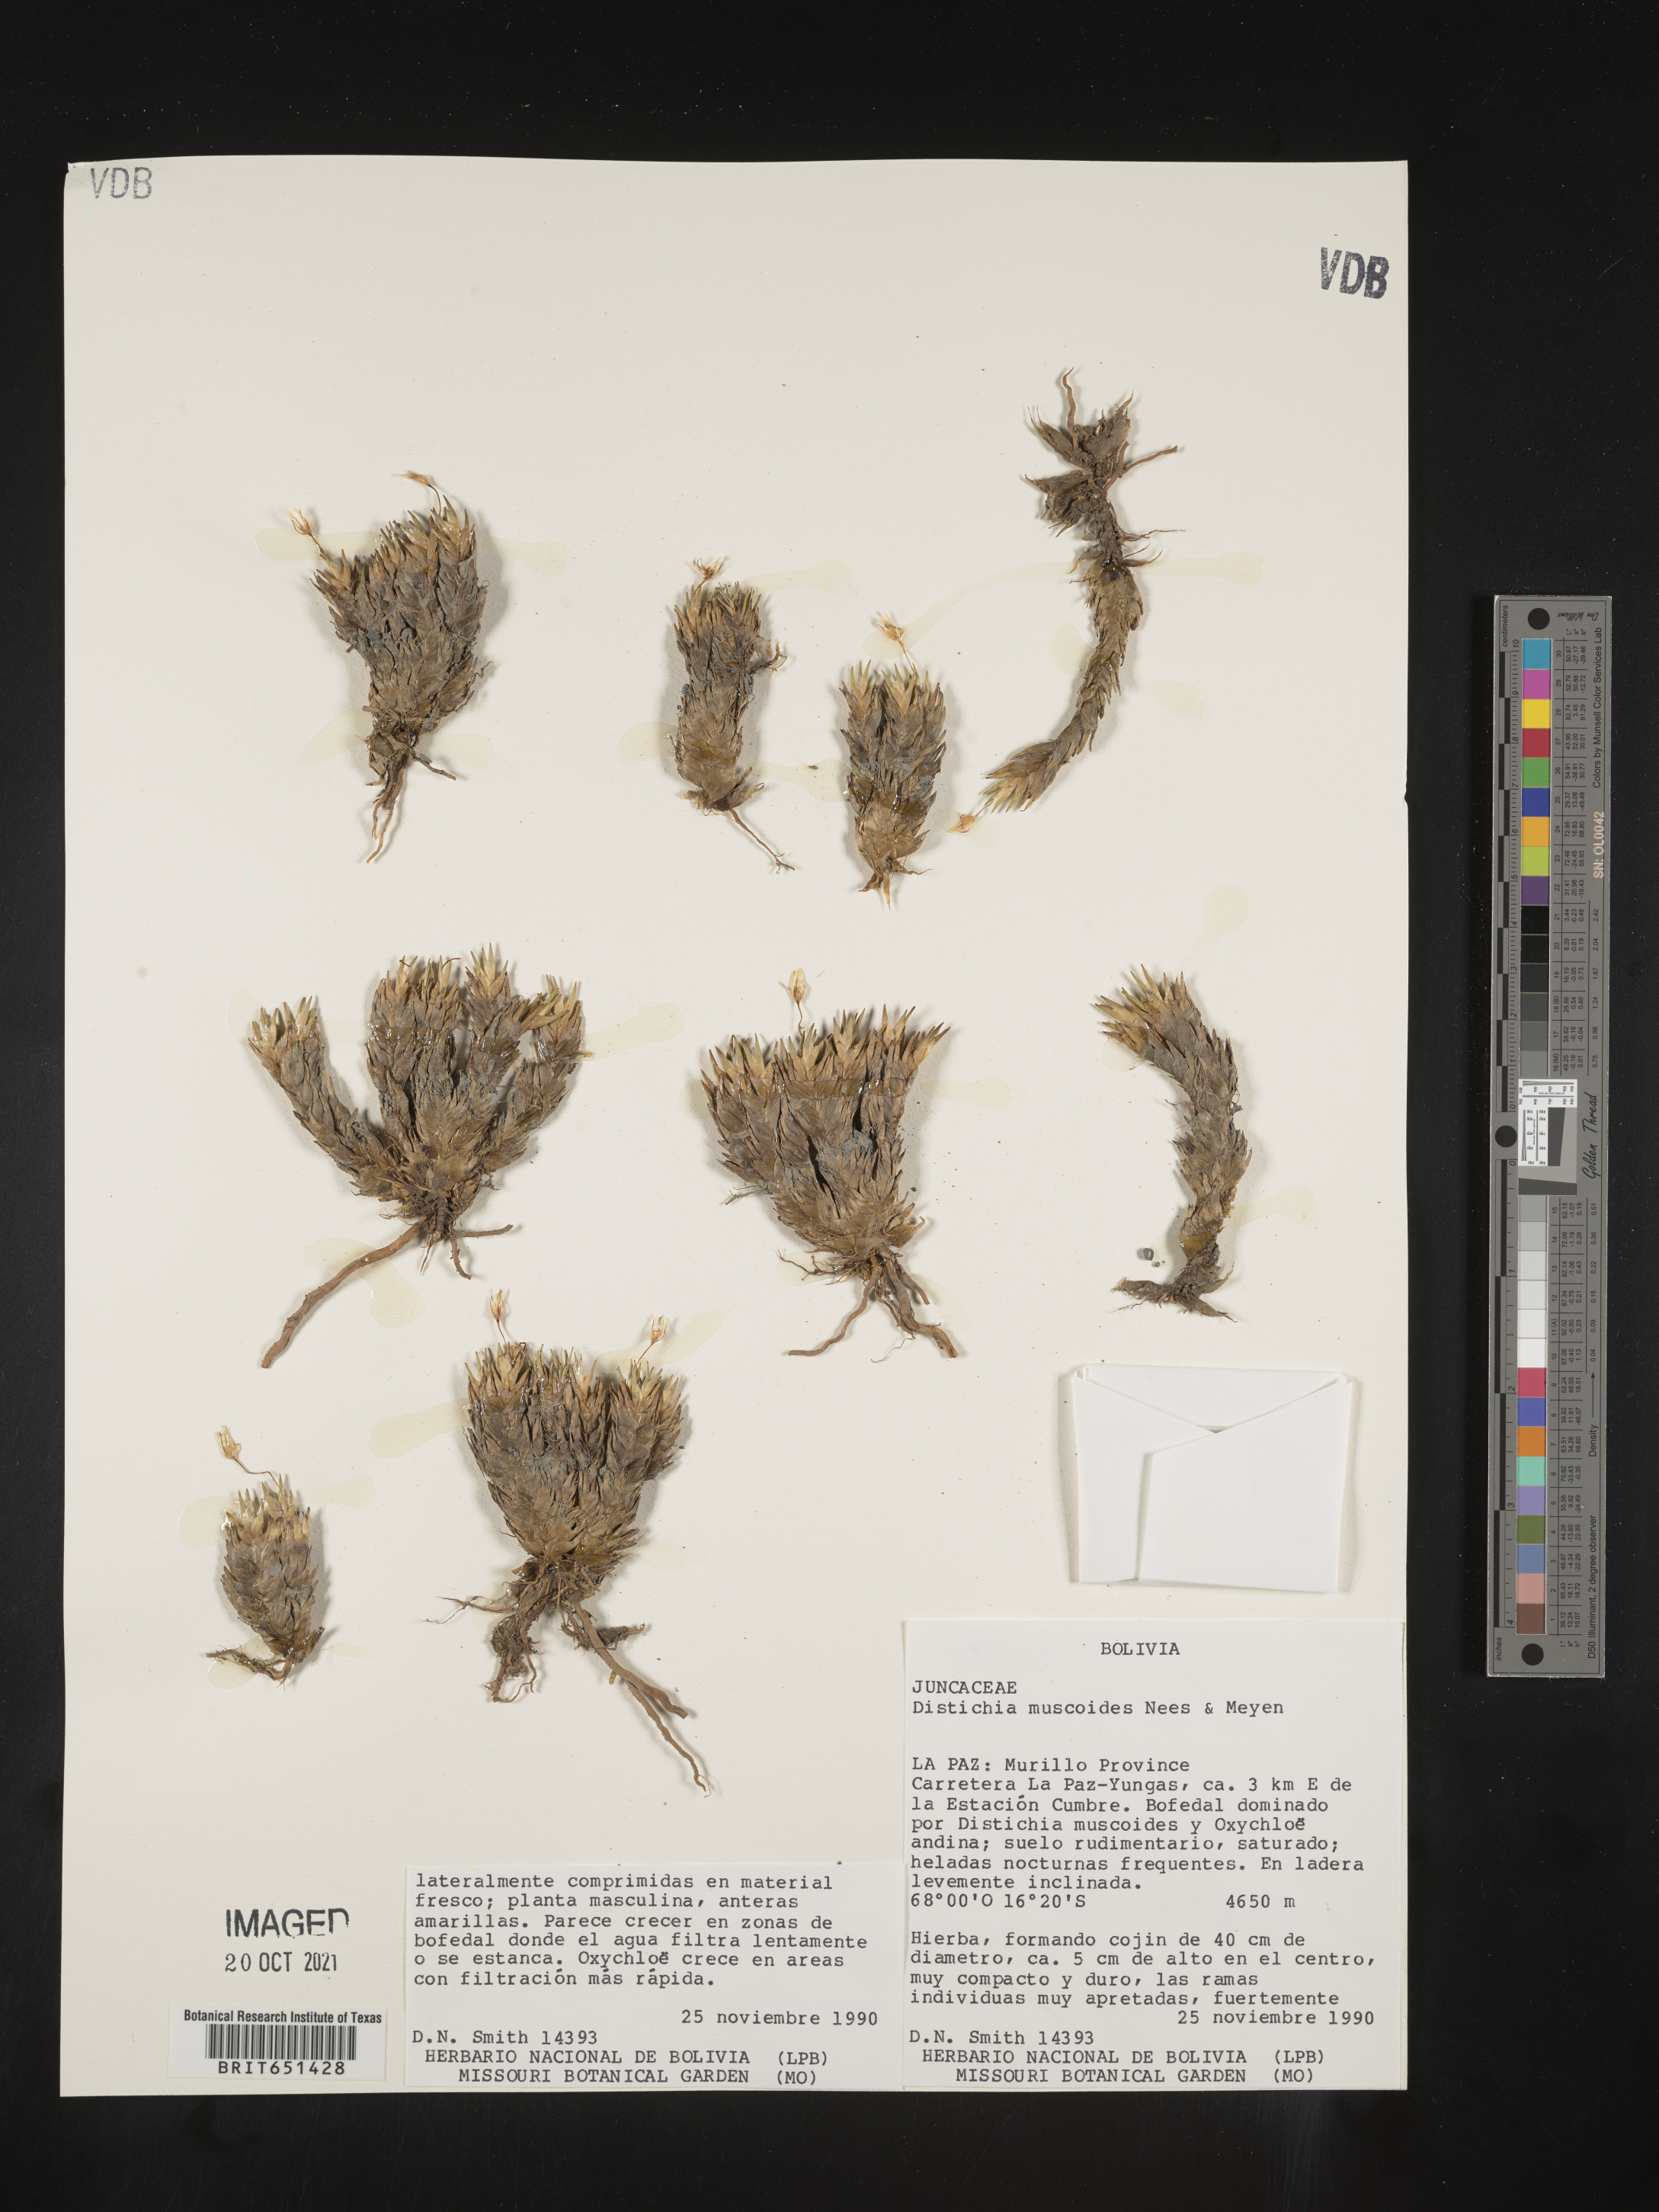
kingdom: Plantae
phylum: Tracheophyta
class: Liliopsida
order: Poales
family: Juncaceae
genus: Distichia
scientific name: Distichia
